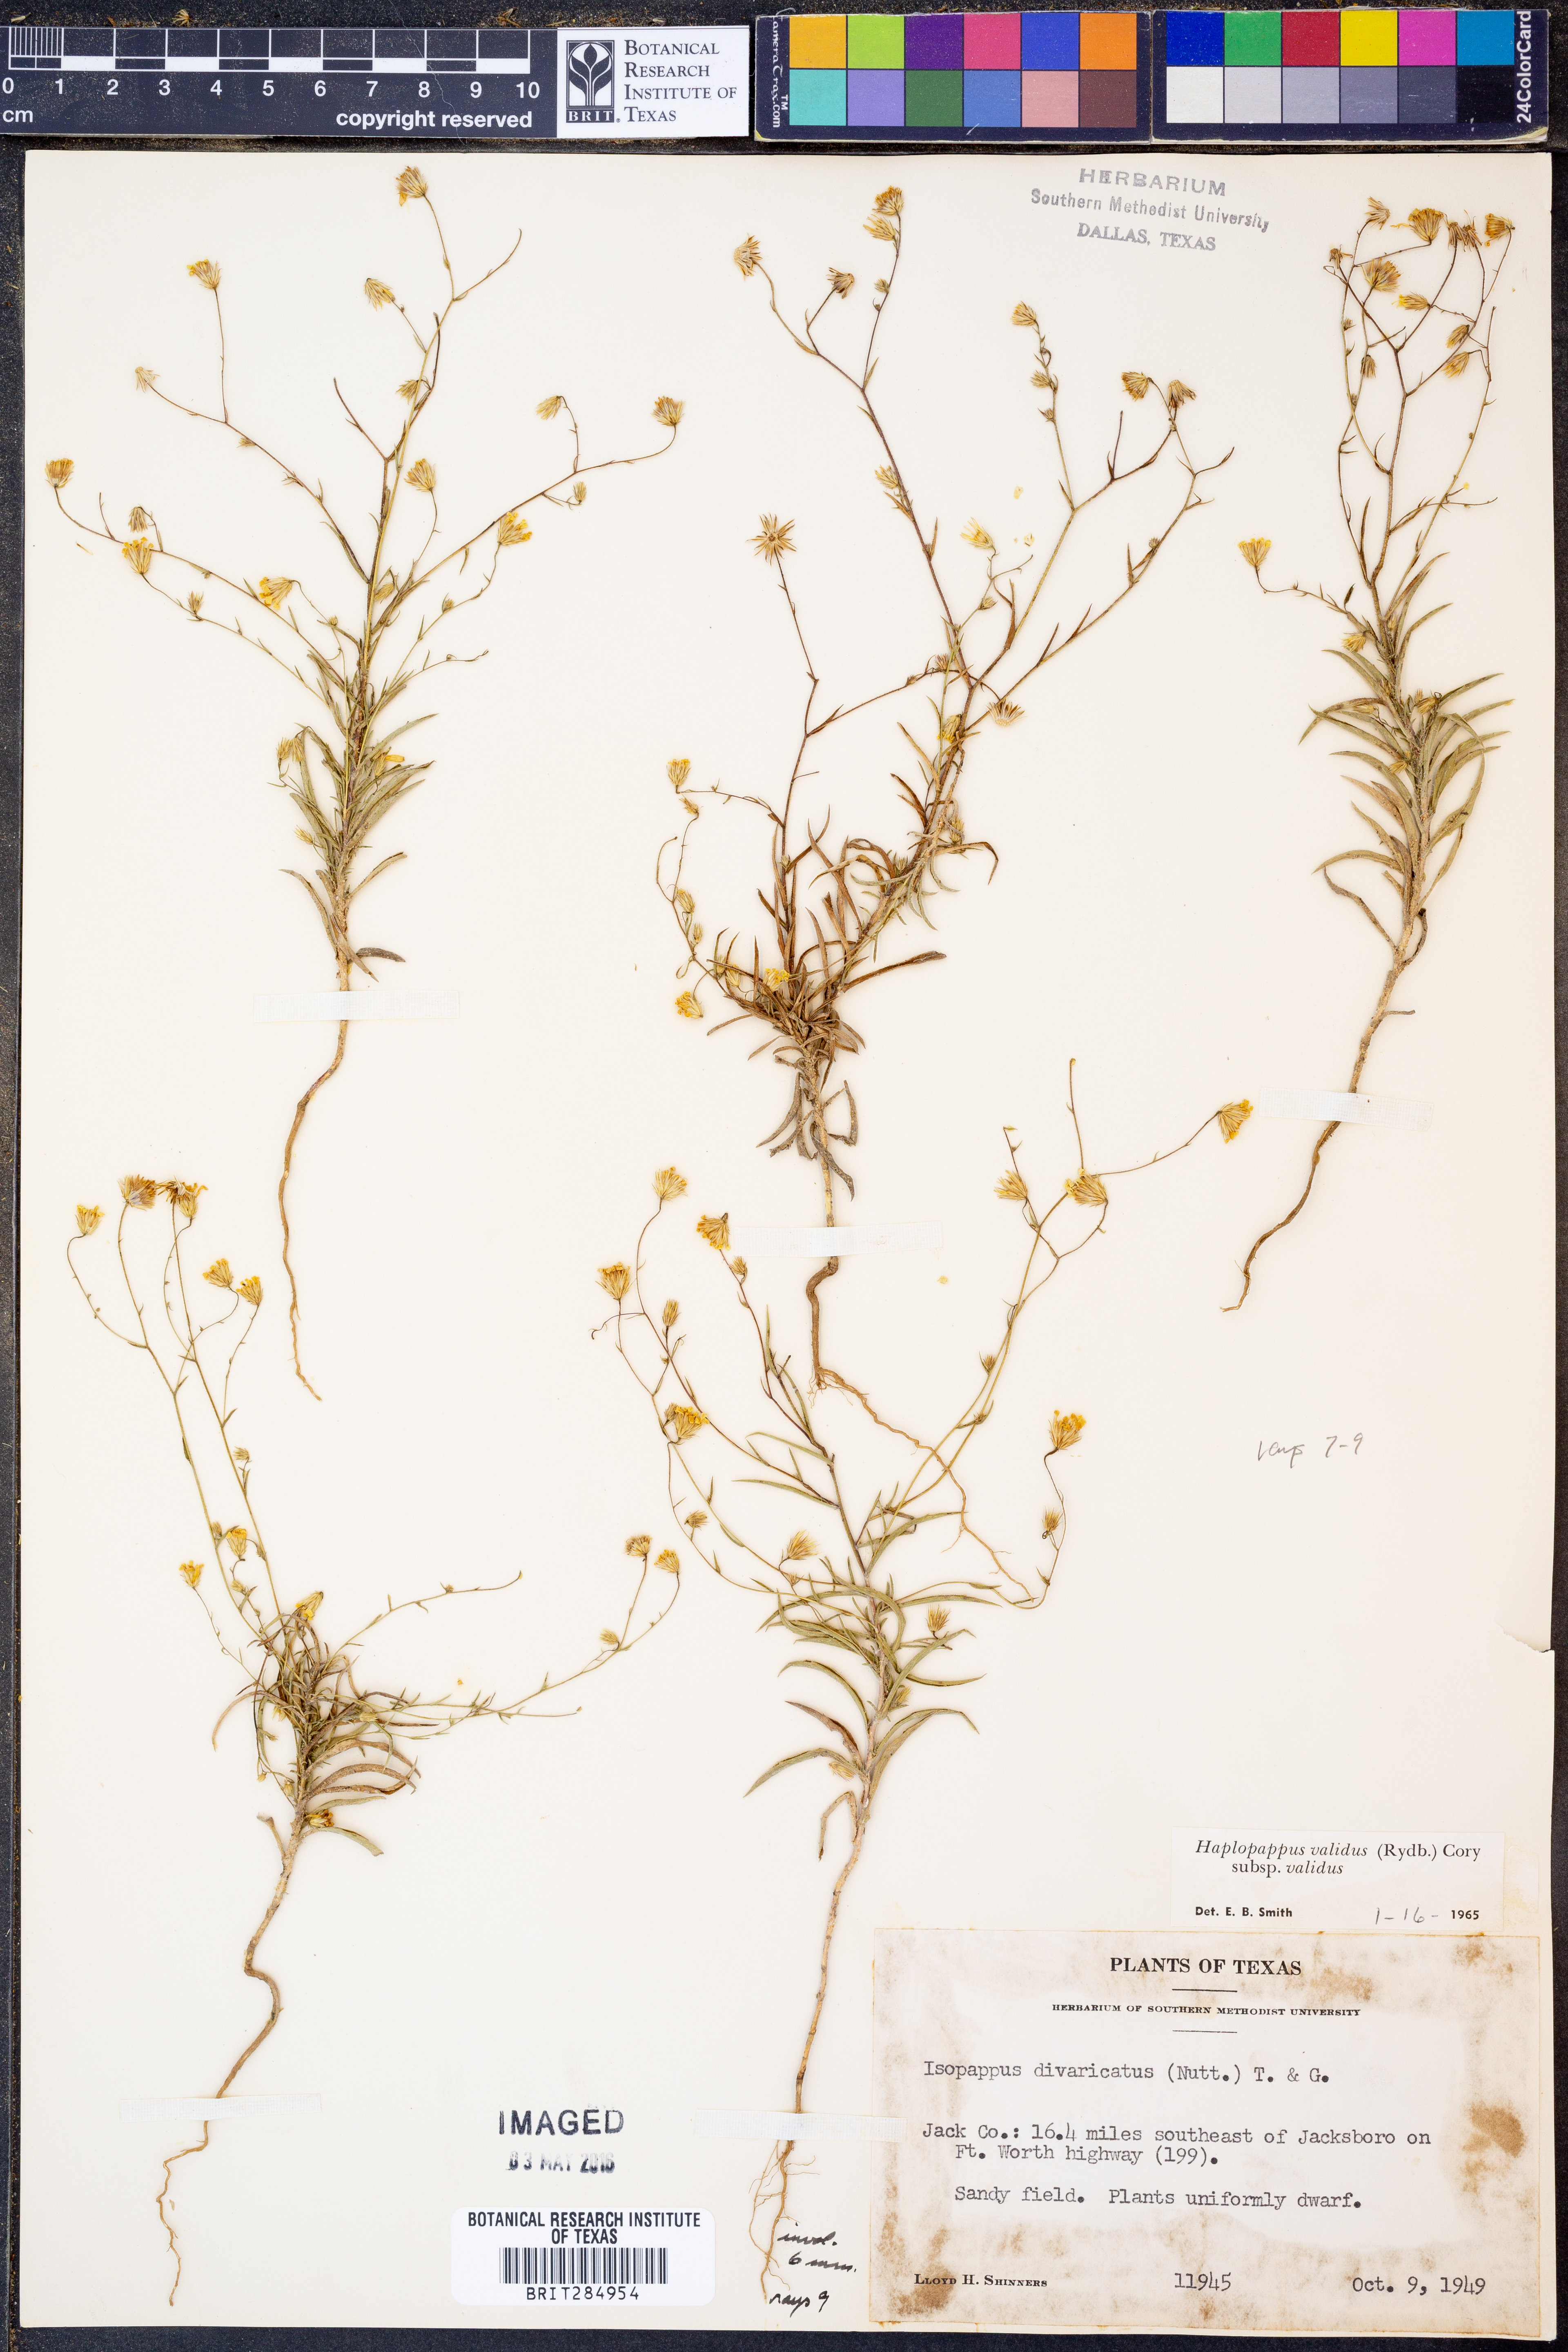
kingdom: Plantae
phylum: Tracheophyta
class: Magnoliopsida
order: Asterales
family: Asteraceae
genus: Croptilon
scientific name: Croptilon hookerianum
